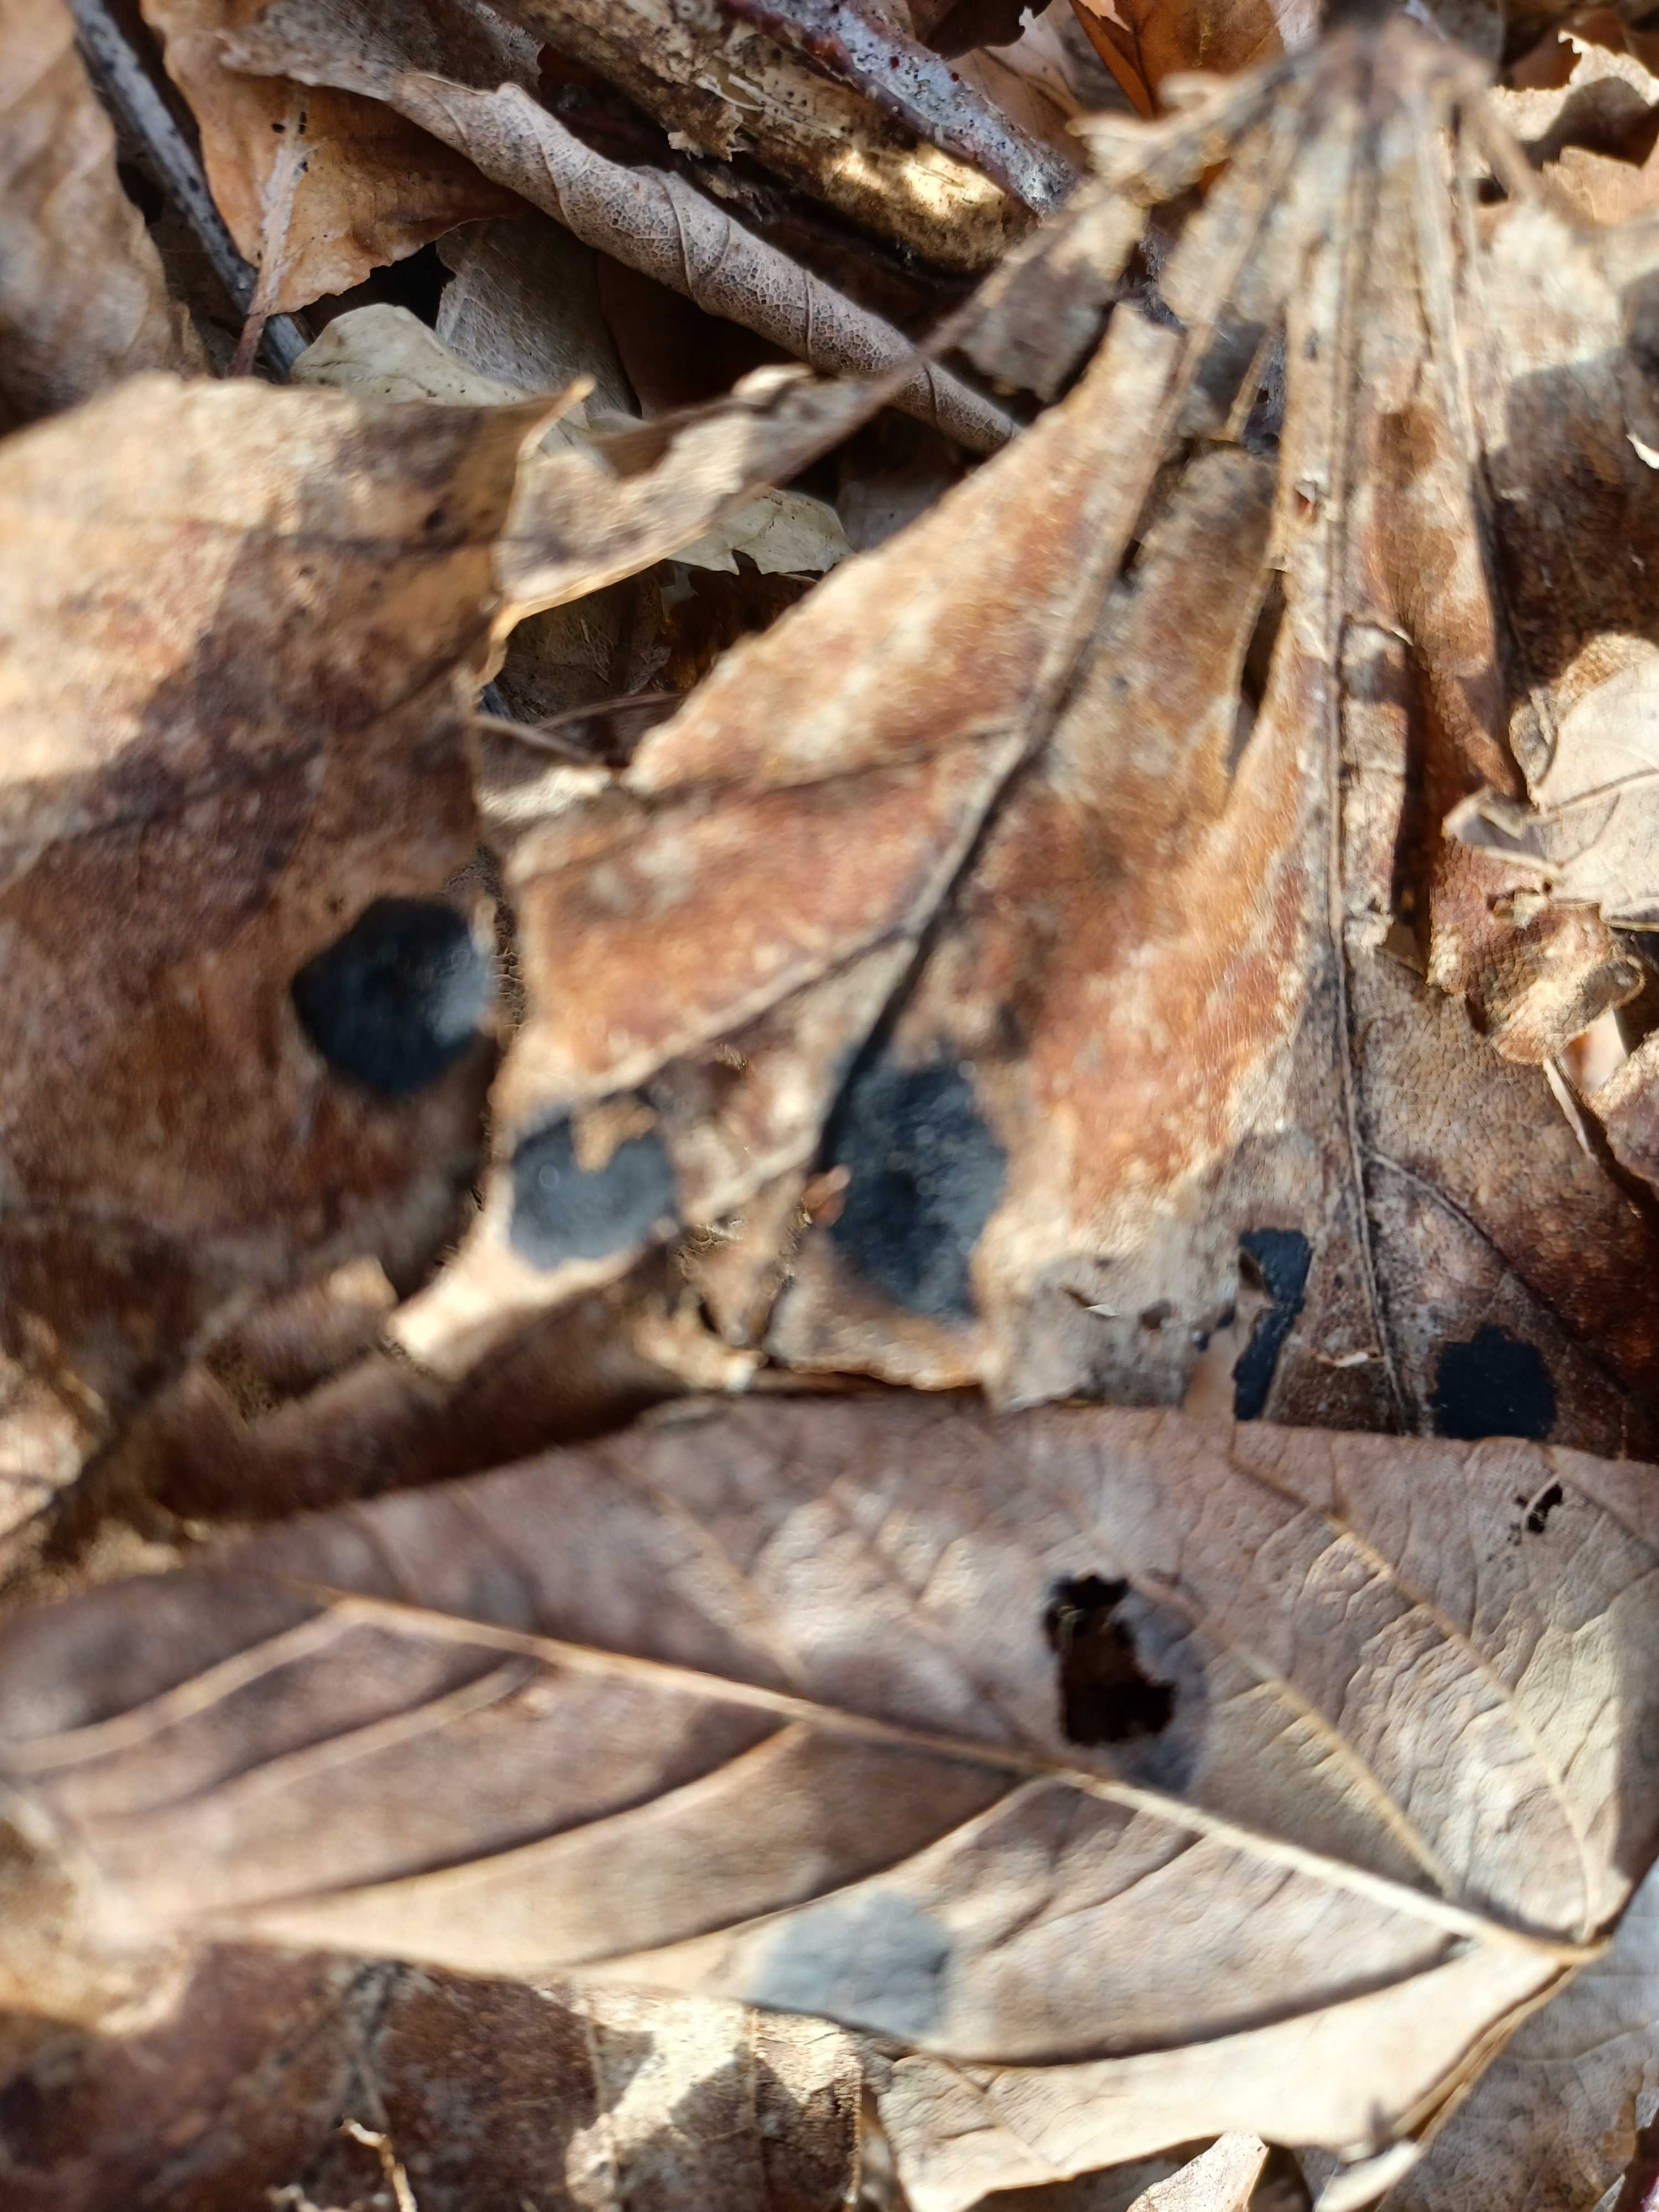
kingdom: Fungi
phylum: Ascomycota
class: Leotiomycetes
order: Rhytismatales
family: Rhytismataceae
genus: Rhytisma
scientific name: Rhytisma acerinum
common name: ahorn-rynkeplet
